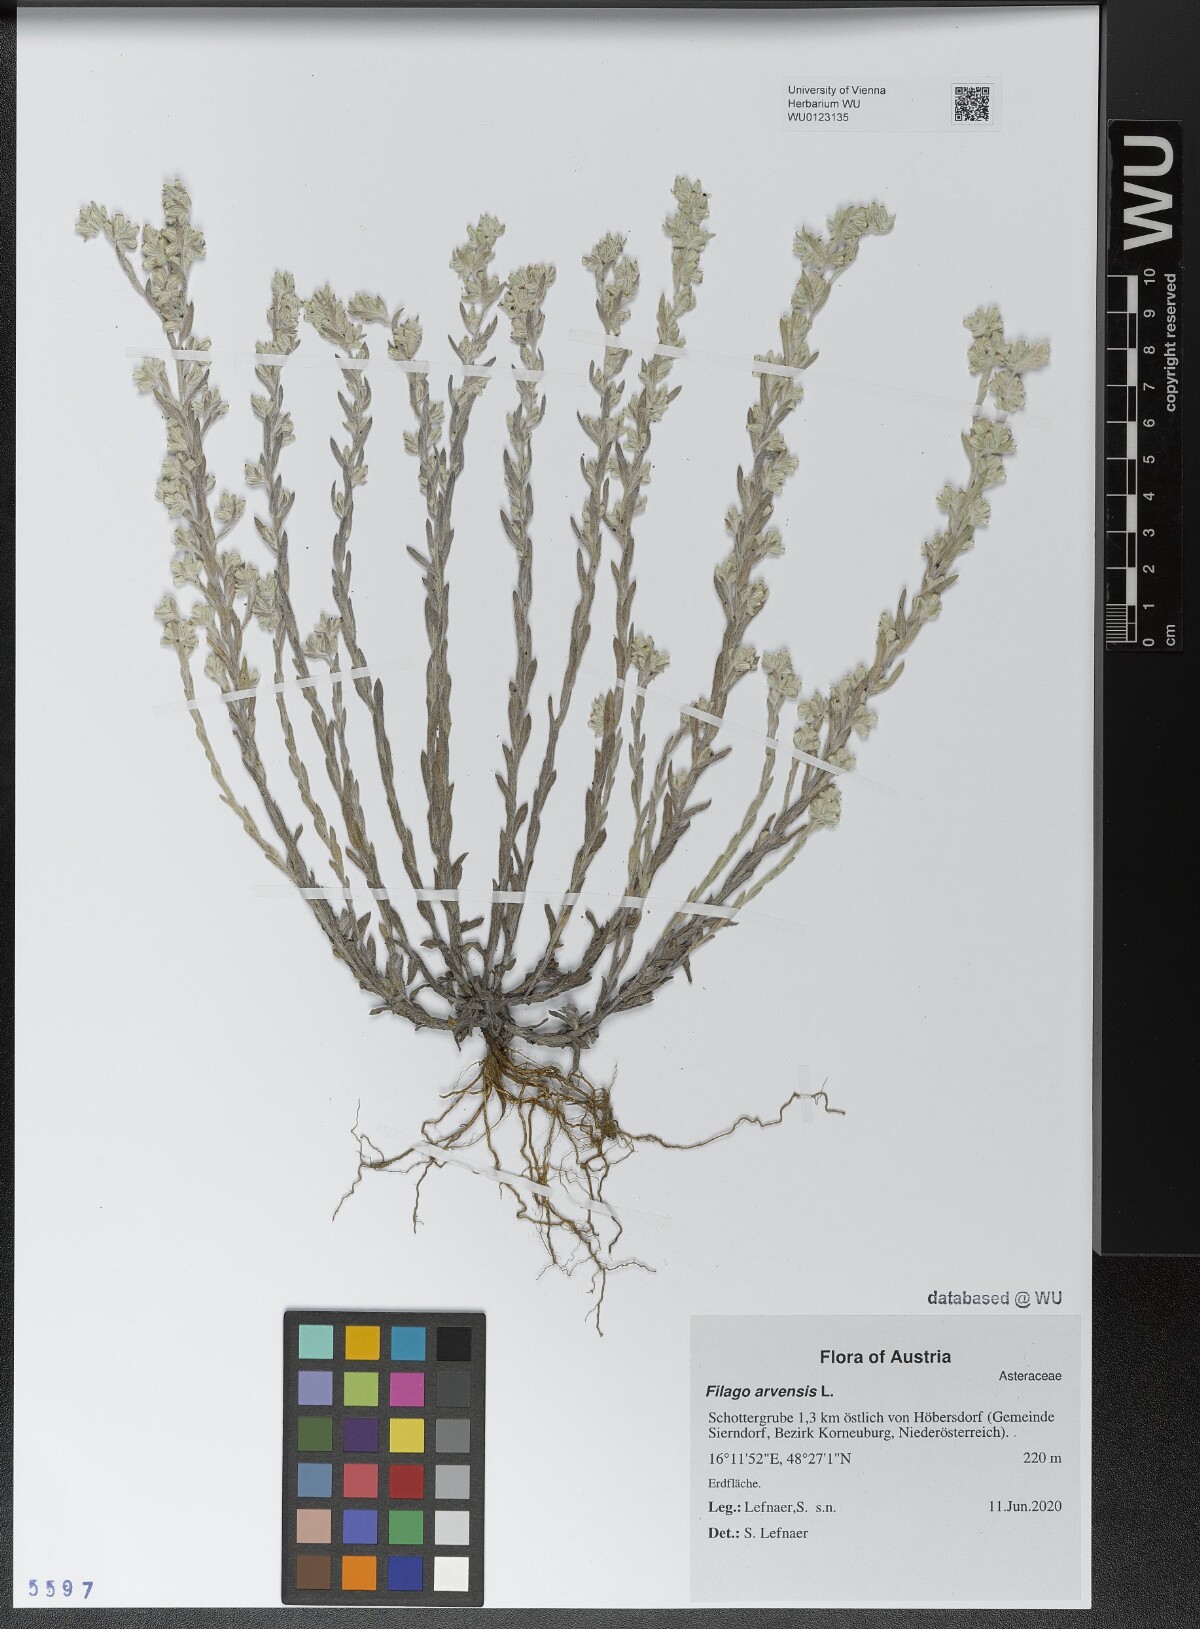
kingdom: Plantae
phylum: Tracheophyta
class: Magnoliopsida
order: Asterales
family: Asteraceae
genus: Filago
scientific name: Filago arvensis
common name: Field cudweed
